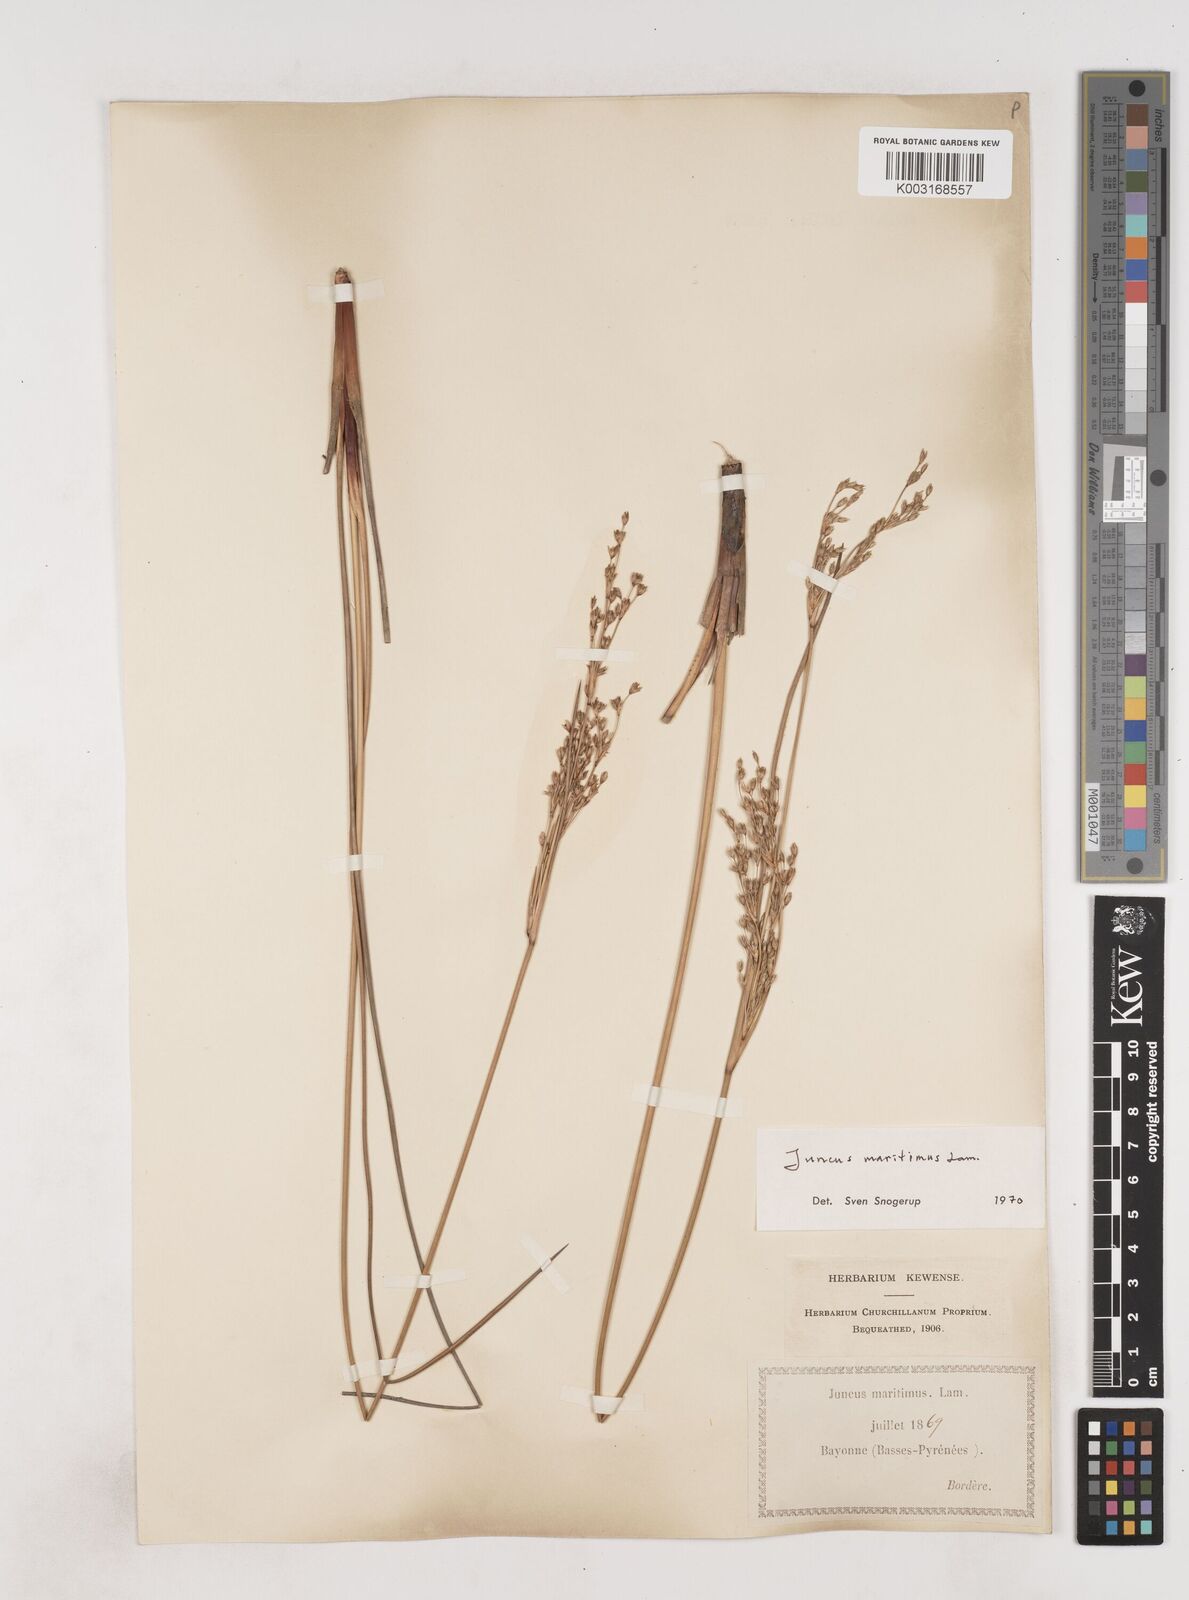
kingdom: Plantae
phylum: Tracheophyta
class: Liliopsida
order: Poales
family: Juncaceae
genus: Juncus
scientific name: Juncus maritimus
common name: Sea rush
